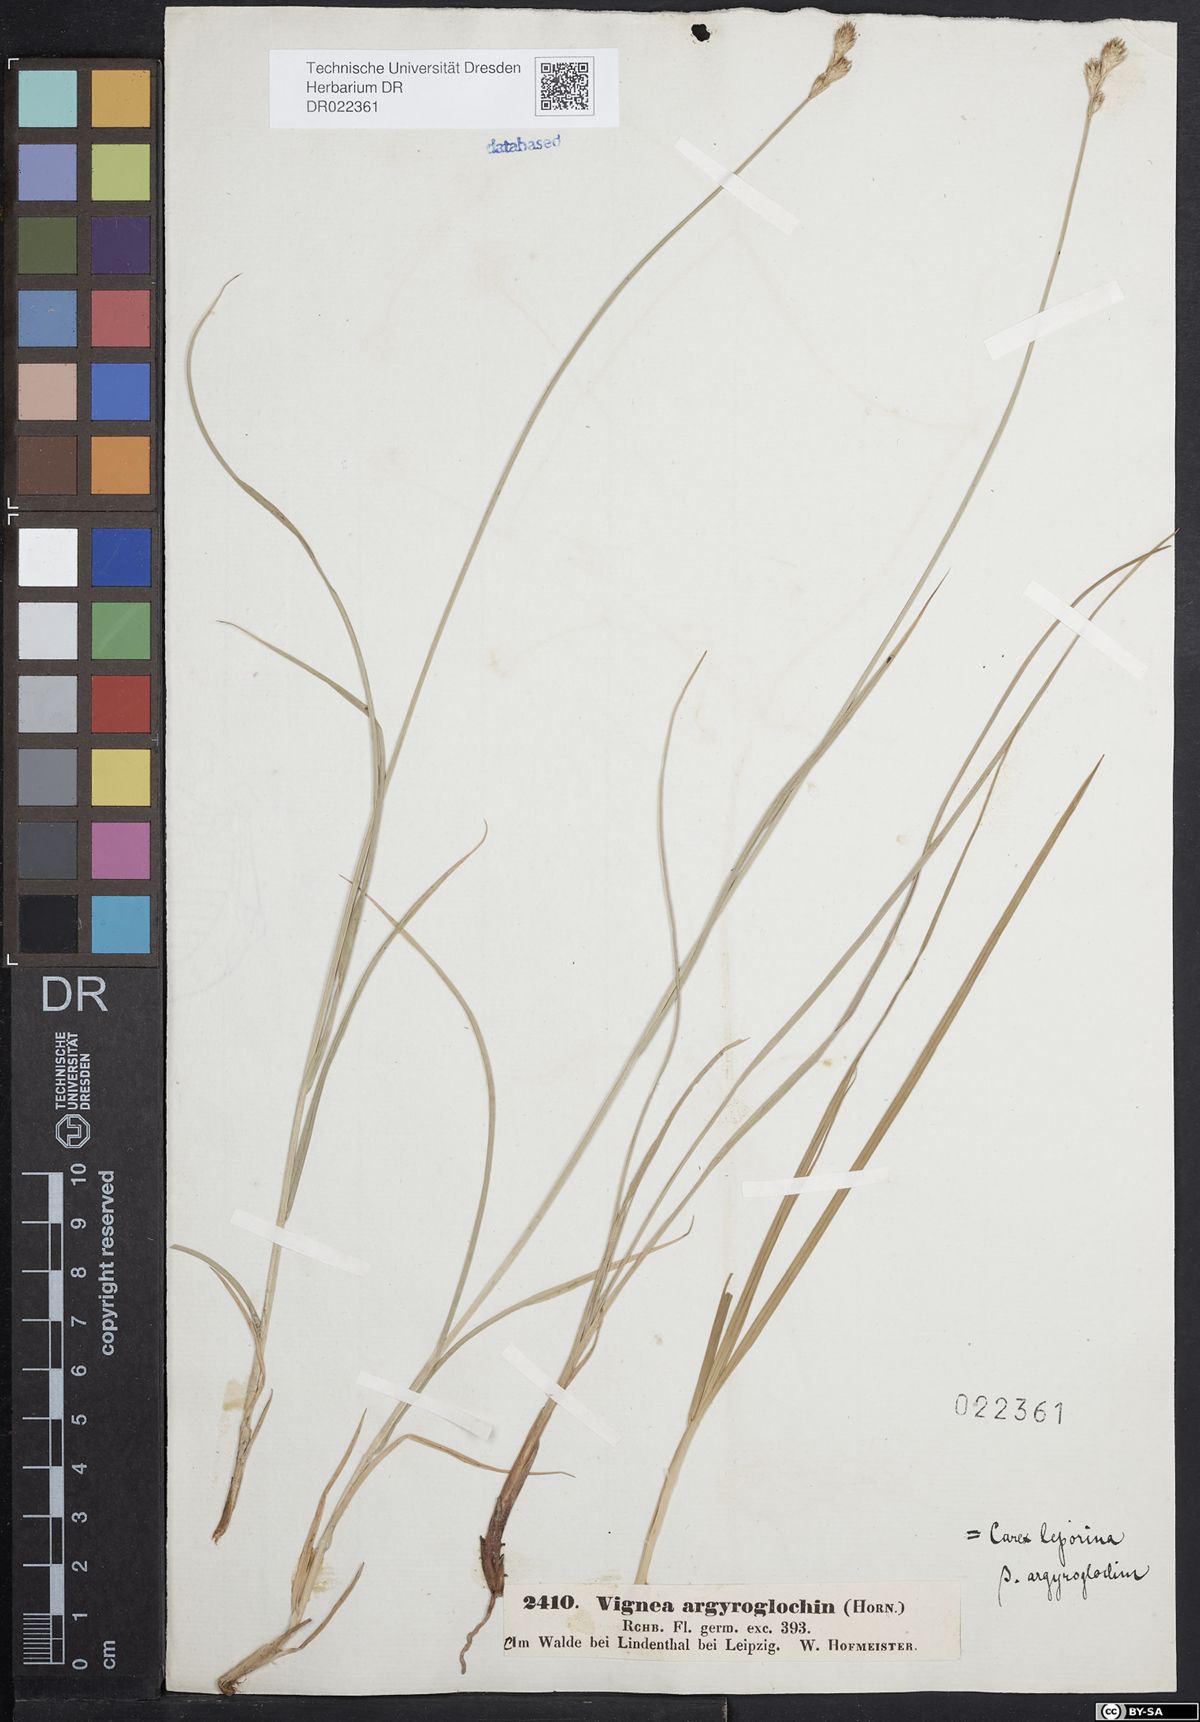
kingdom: Plantae
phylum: Tracheophyta
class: Liliopsida
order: Poales
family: Cyperaceae
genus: Carex
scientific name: Carex leporina
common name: Oval sedge
